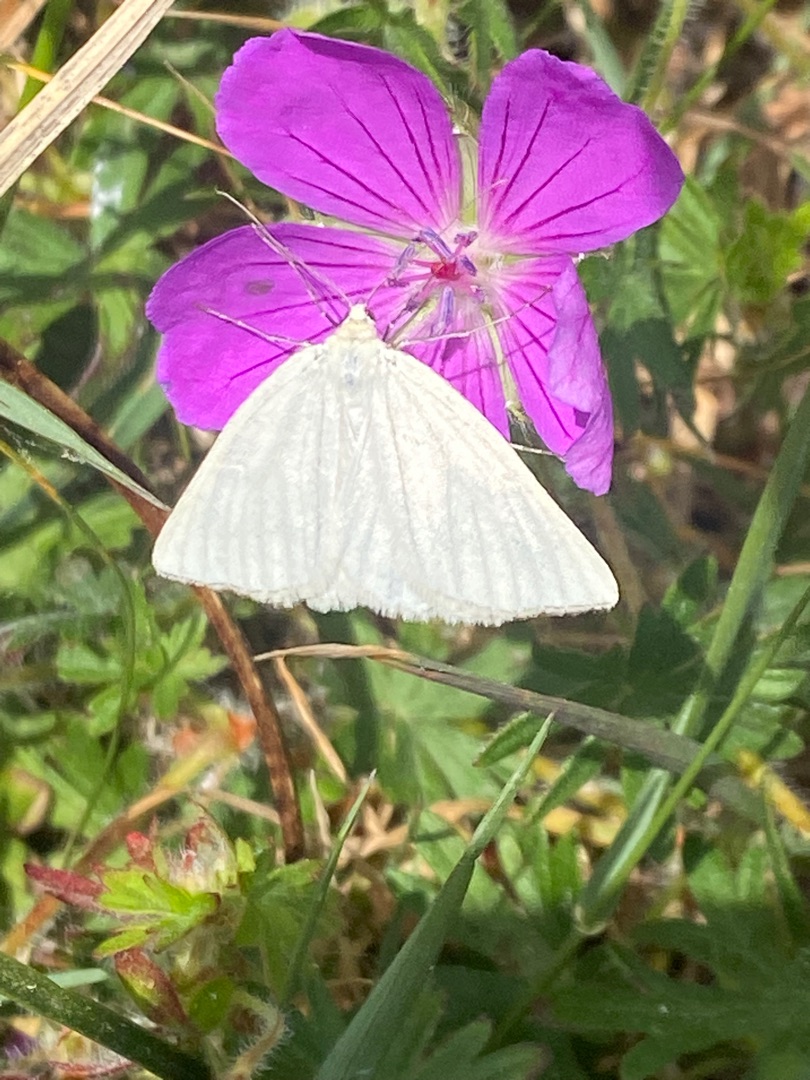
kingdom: Animalia
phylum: Arthropoda
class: Insecta
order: Lepidoptera
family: Geometridae
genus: Siona
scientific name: Siona lineata
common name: Hvidvingemåler
